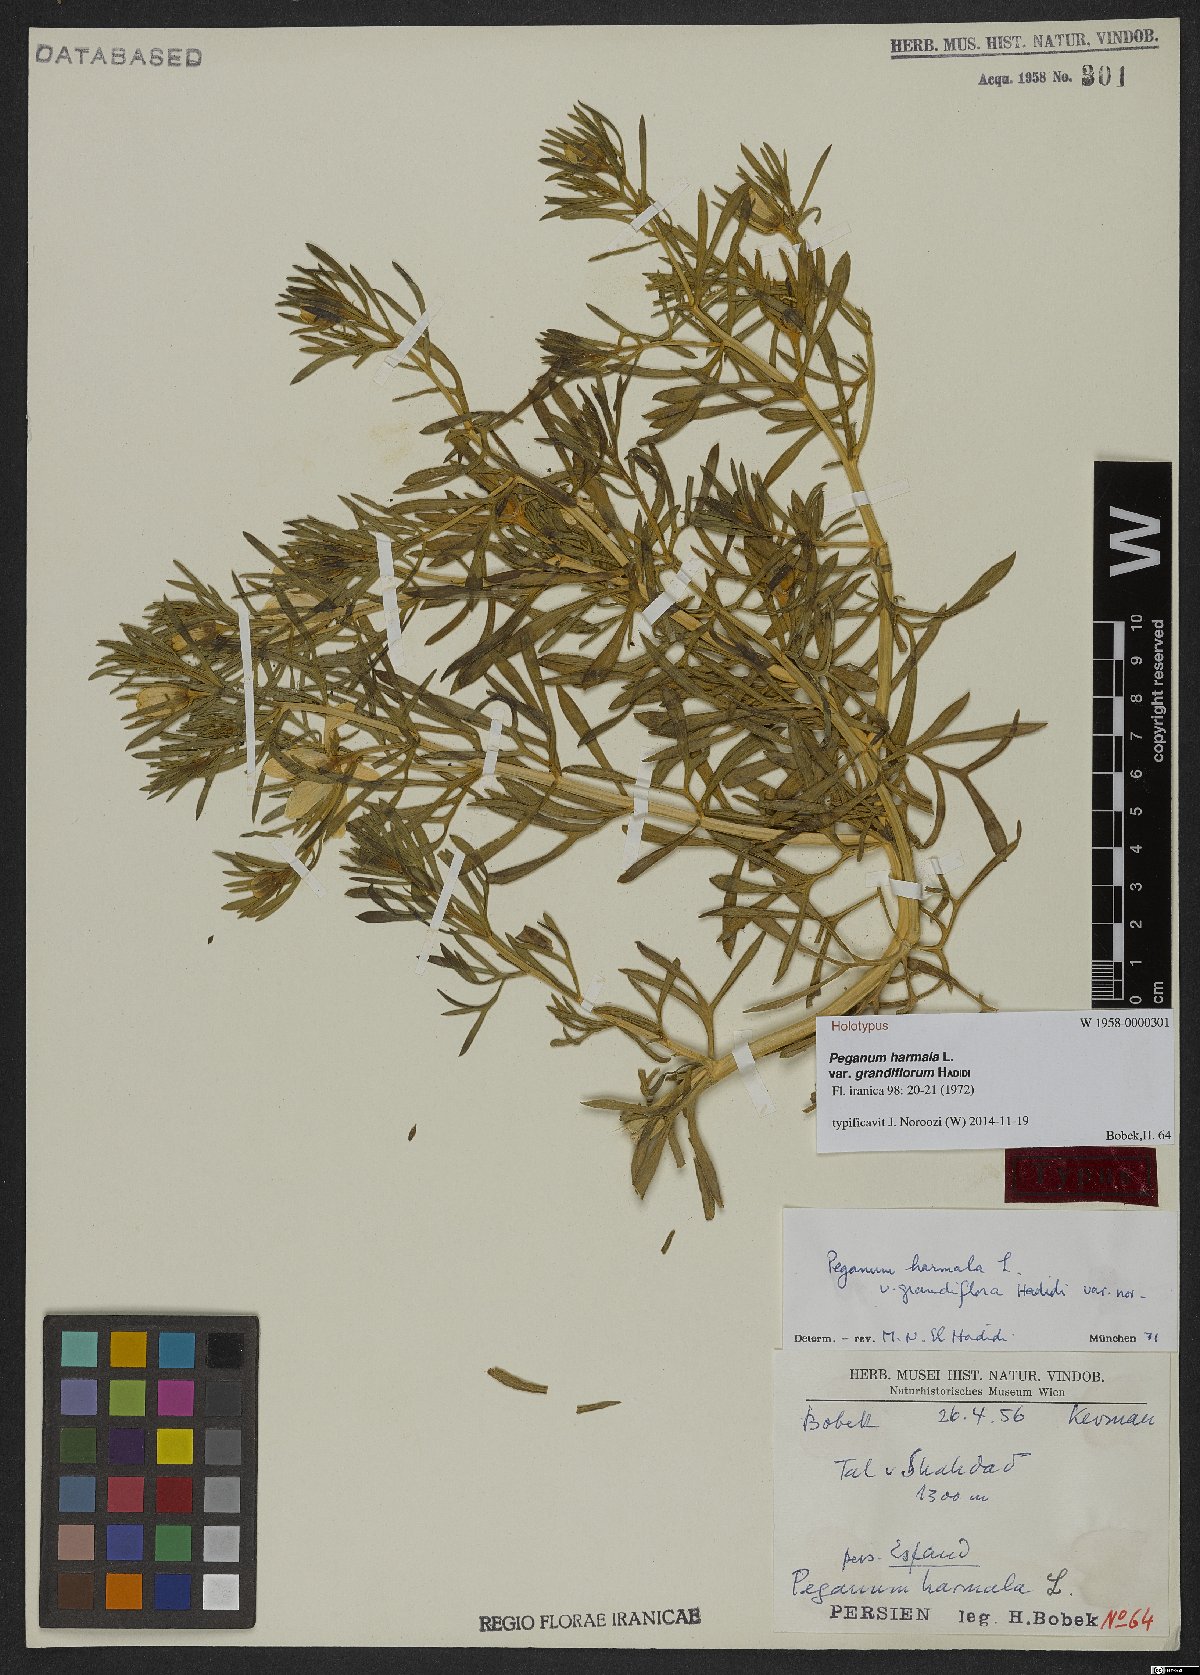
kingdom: Plantae
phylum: Tracheophyta
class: Magnoliopsida
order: Sapindales
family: Tetradiclidaceae
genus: Peganum
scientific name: Peganum harmala
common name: Harmal peganum
